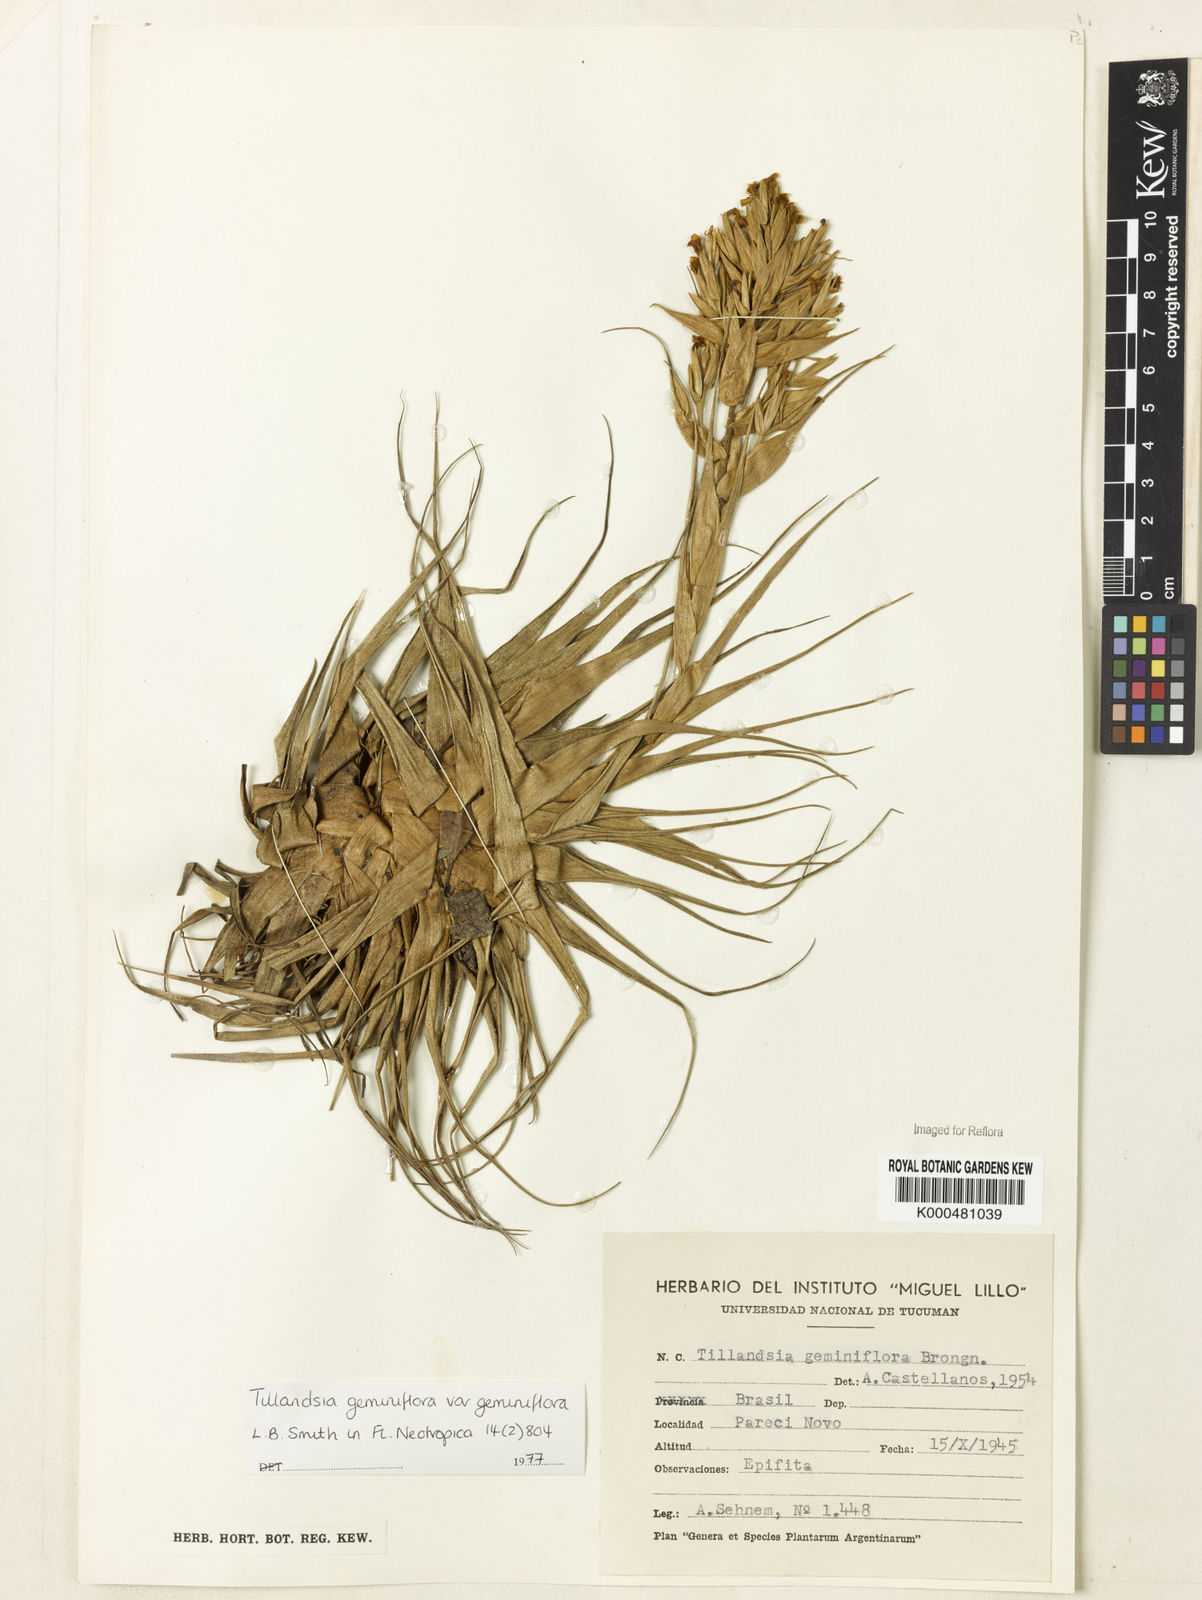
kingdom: Plantae
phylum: Tracheophyta
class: Liliopsida
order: Poales
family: Bromeliaceae
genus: Tillandsia
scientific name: Tillandsia geminiflora
